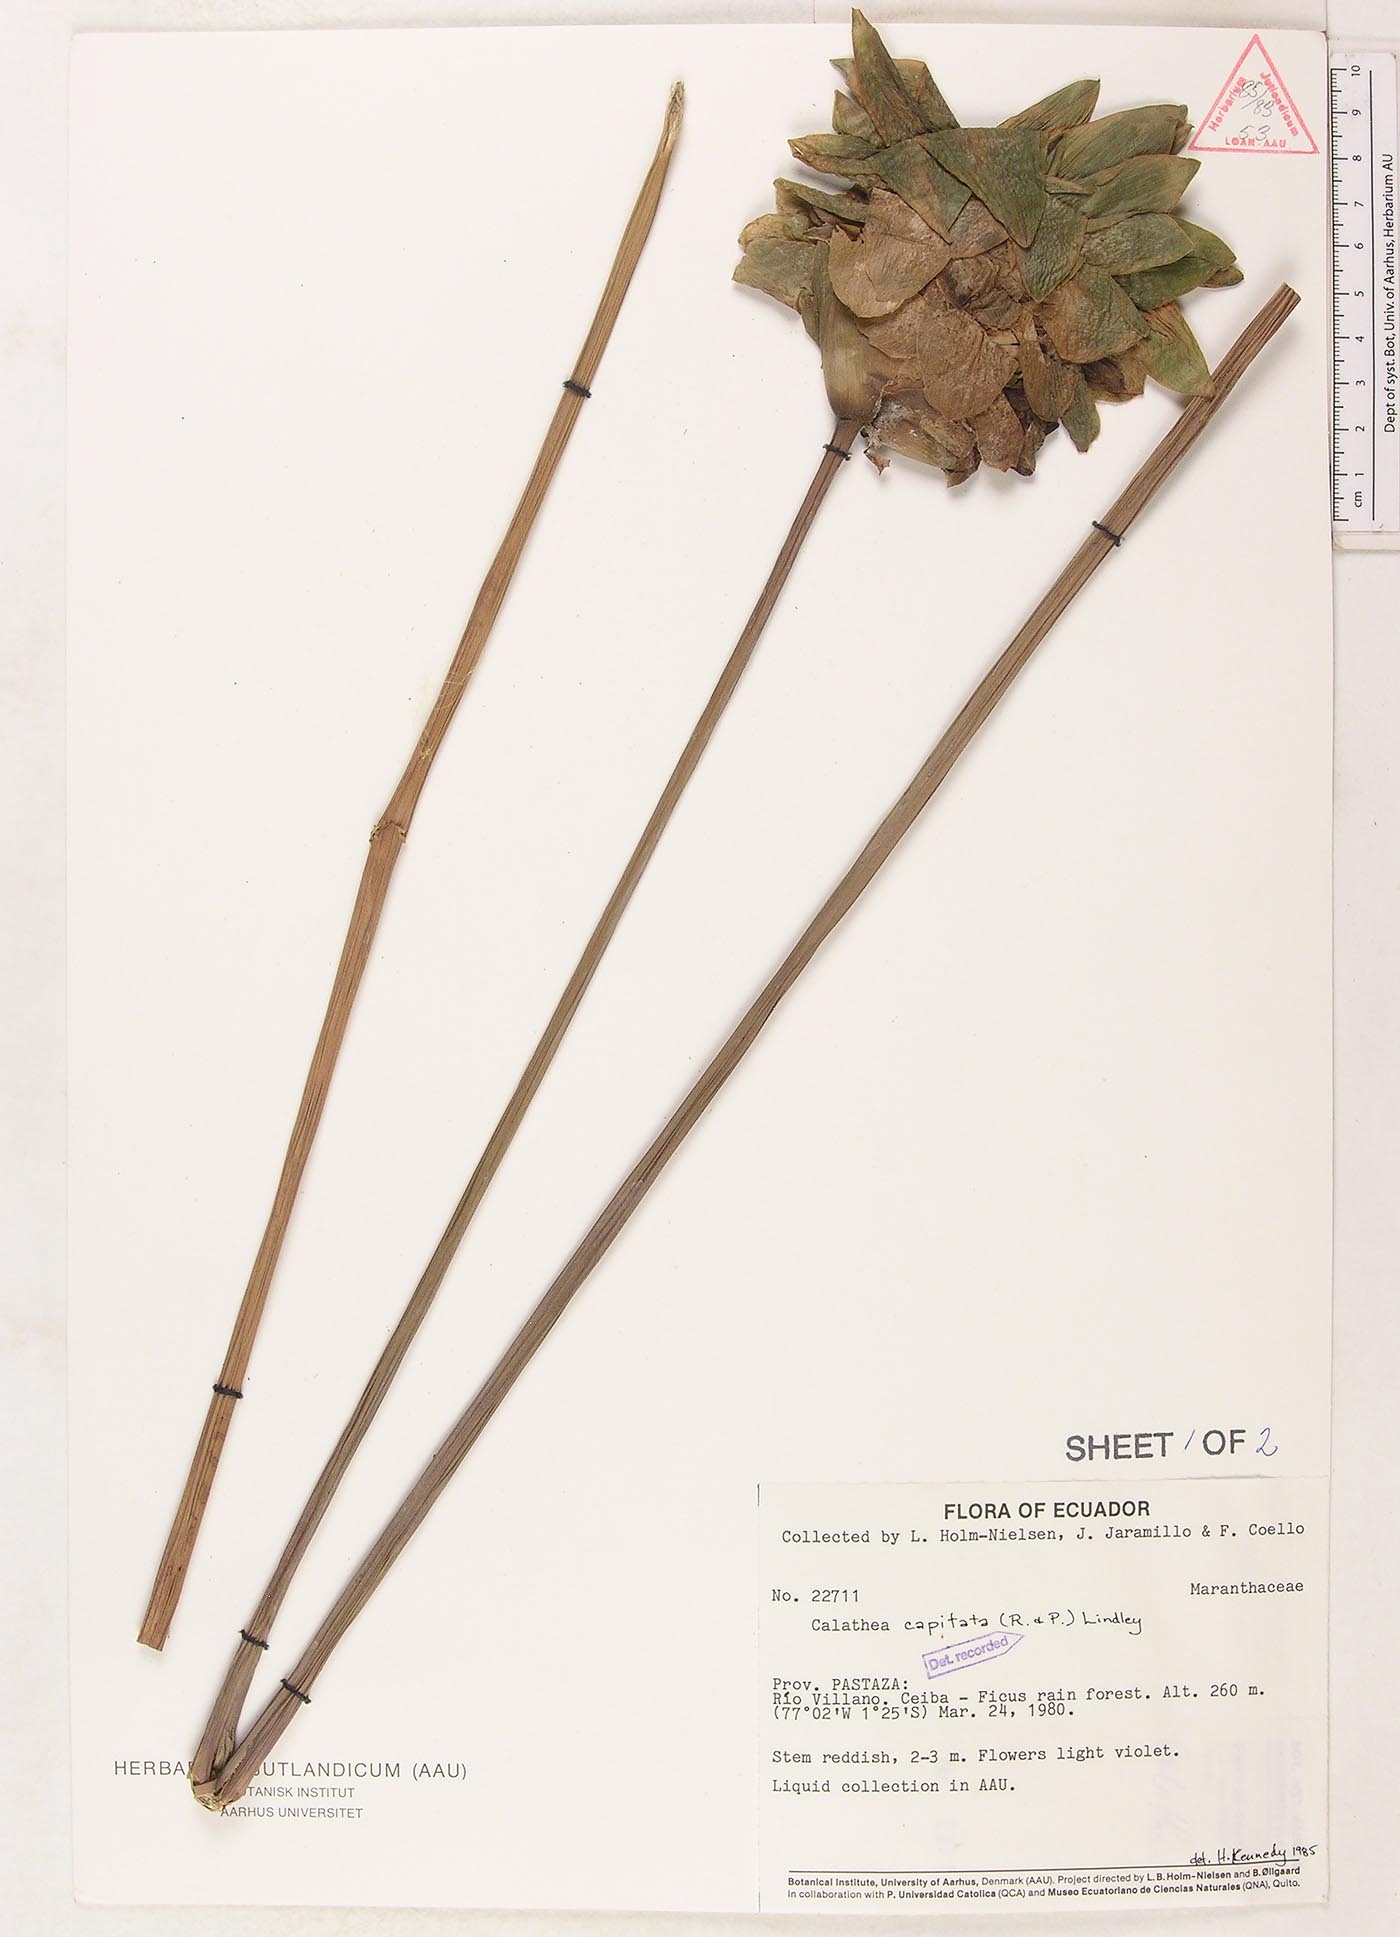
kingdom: Plantae
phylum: Tracheophyta
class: Liliopsida
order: Zingiberales
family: Marantaceae
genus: Goeppertia
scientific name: Goeppertia capitata
